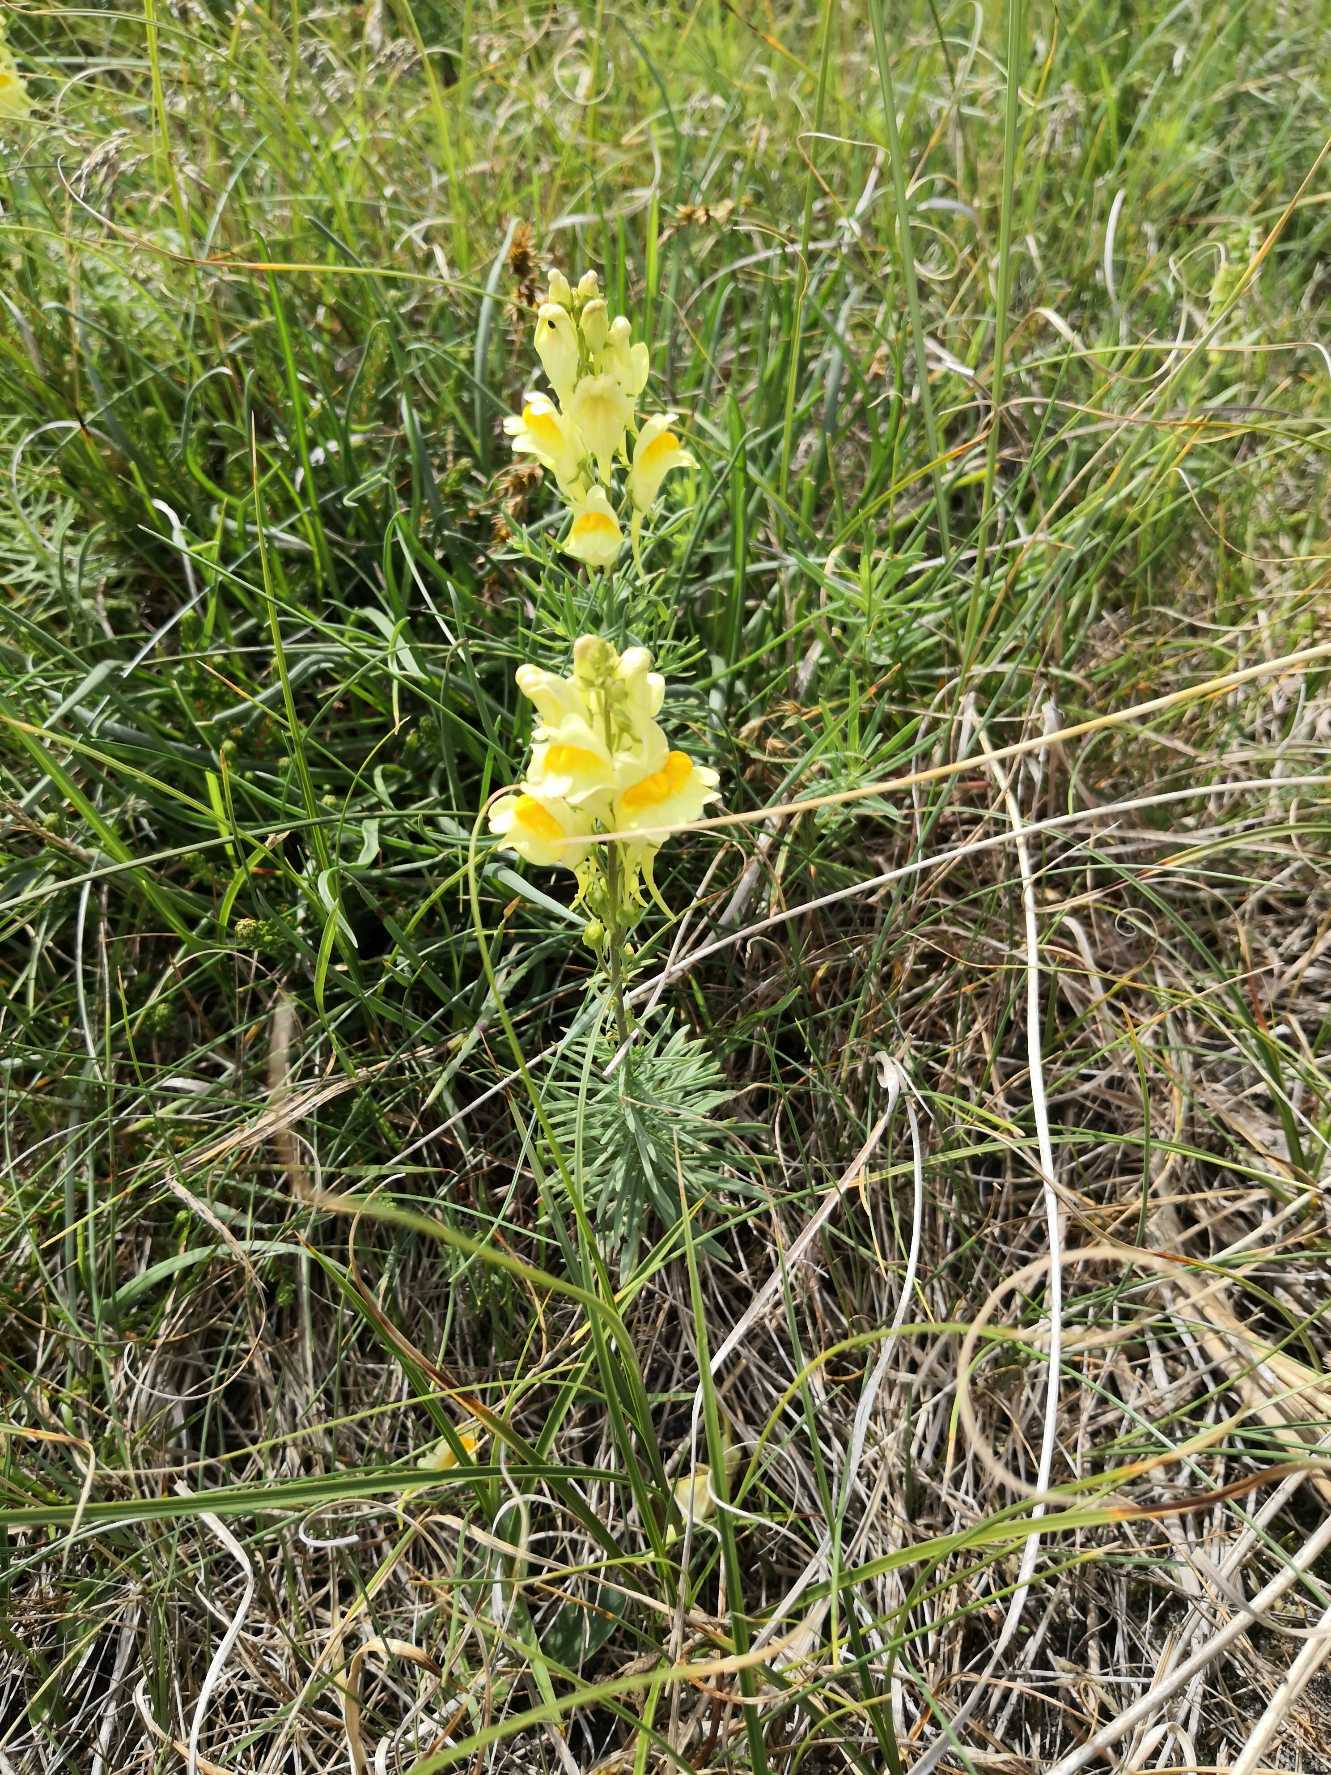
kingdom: Plantae
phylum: Tracheophyta
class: Magnoliopsida
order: Lamiales
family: Plantaginaceae
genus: Linaria
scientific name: Linaria vulgaris
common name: Almindelig torskemund
